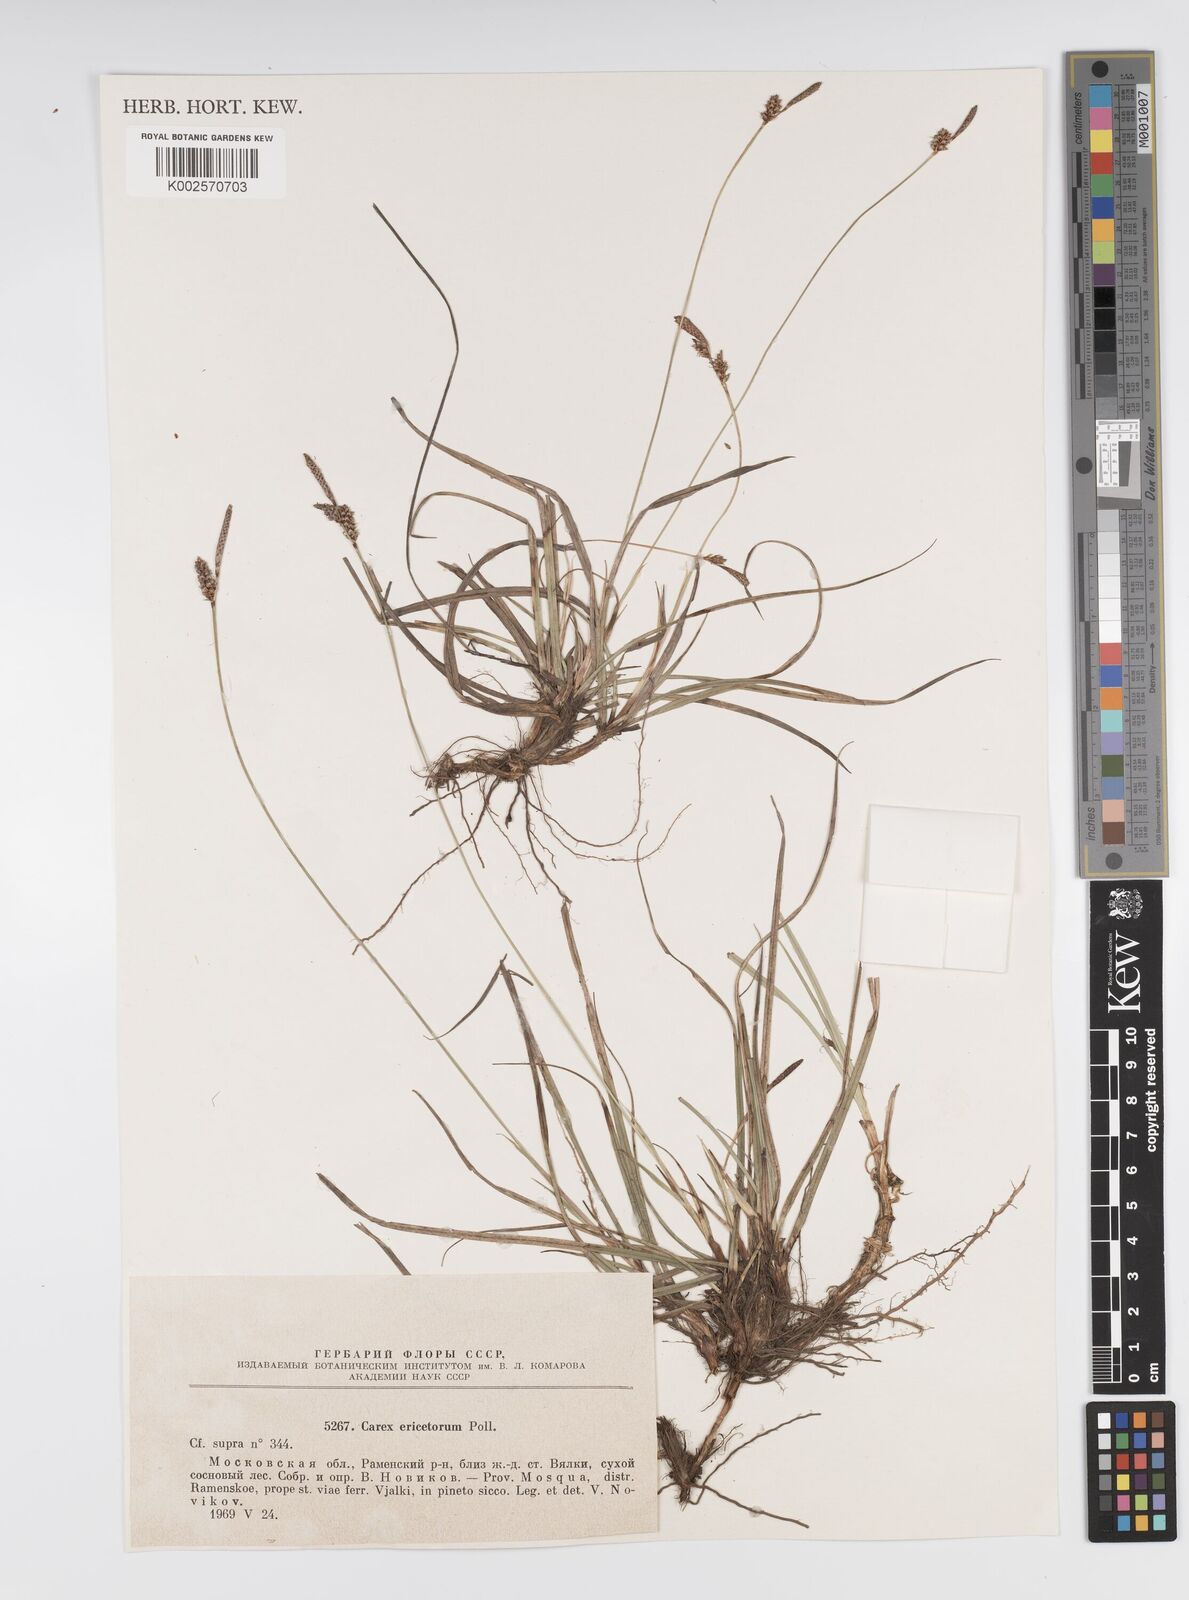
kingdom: Plantae
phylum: Tracheophyta
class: Liliopsida
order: Poales
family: Cyperaceae
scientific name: Cyperaceae
